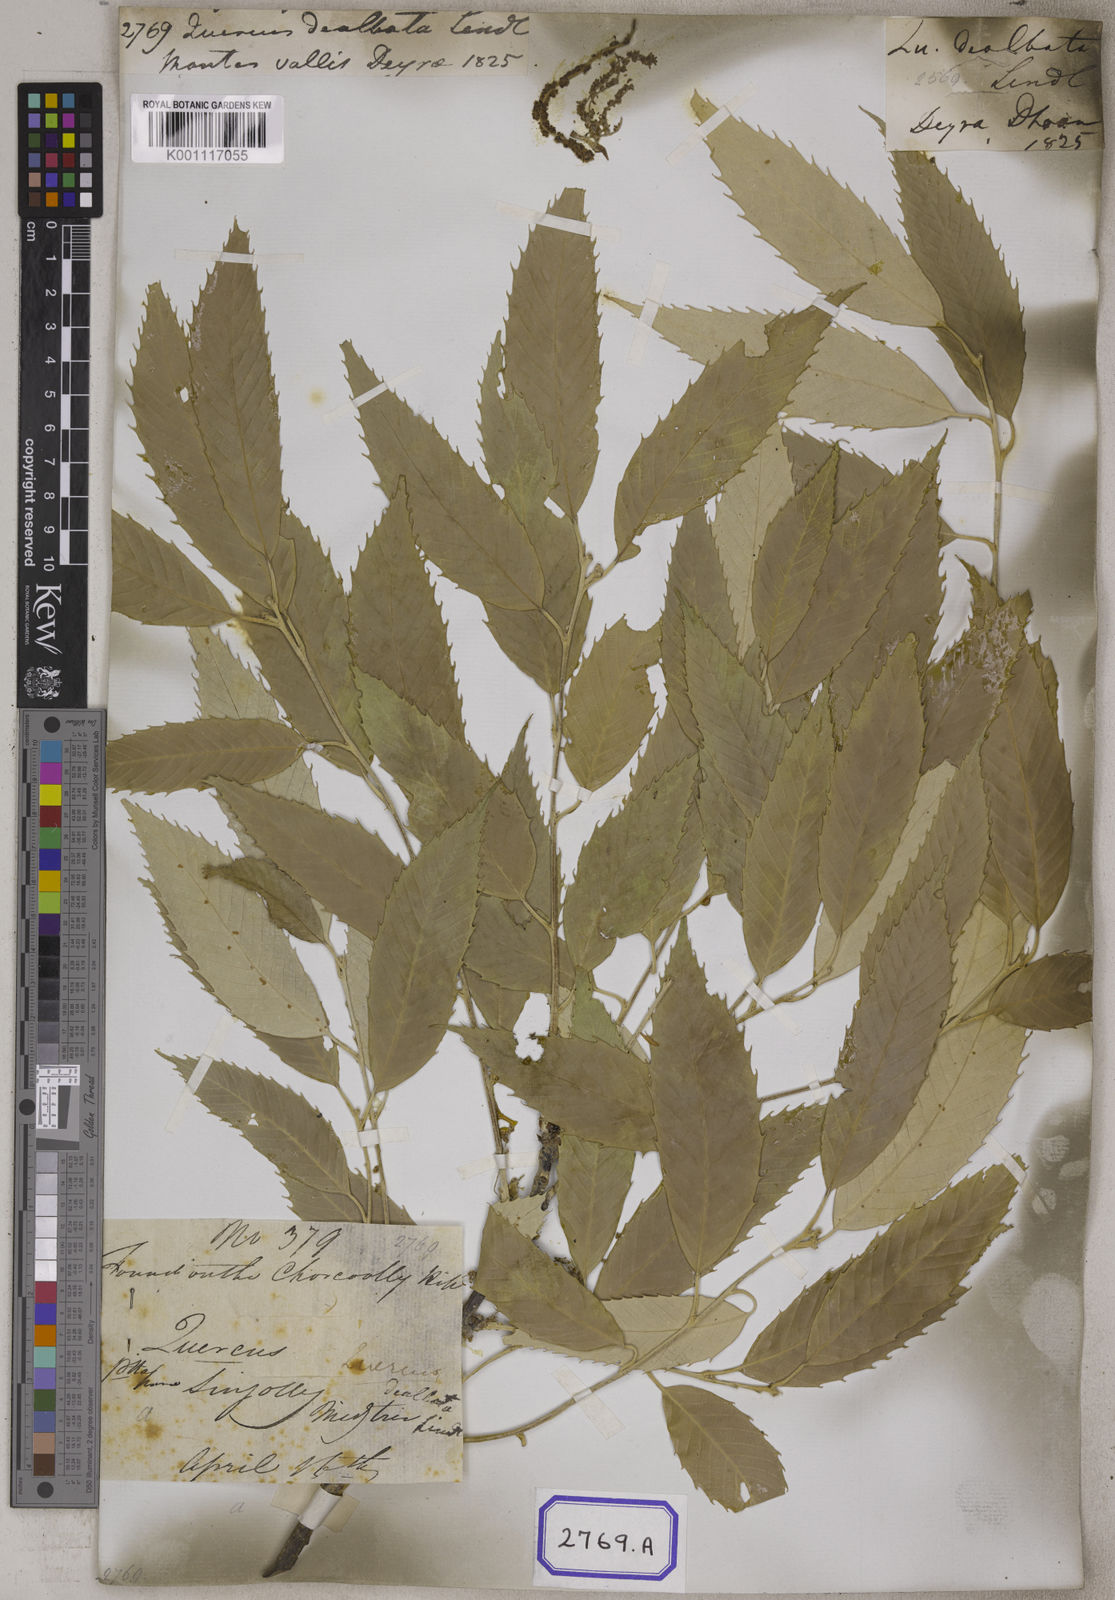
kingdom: Plantae
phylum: Tracheophyta
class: Magnoliopsida
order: Fagales
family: Fagaceae
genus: Quercus
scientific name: Quercus
